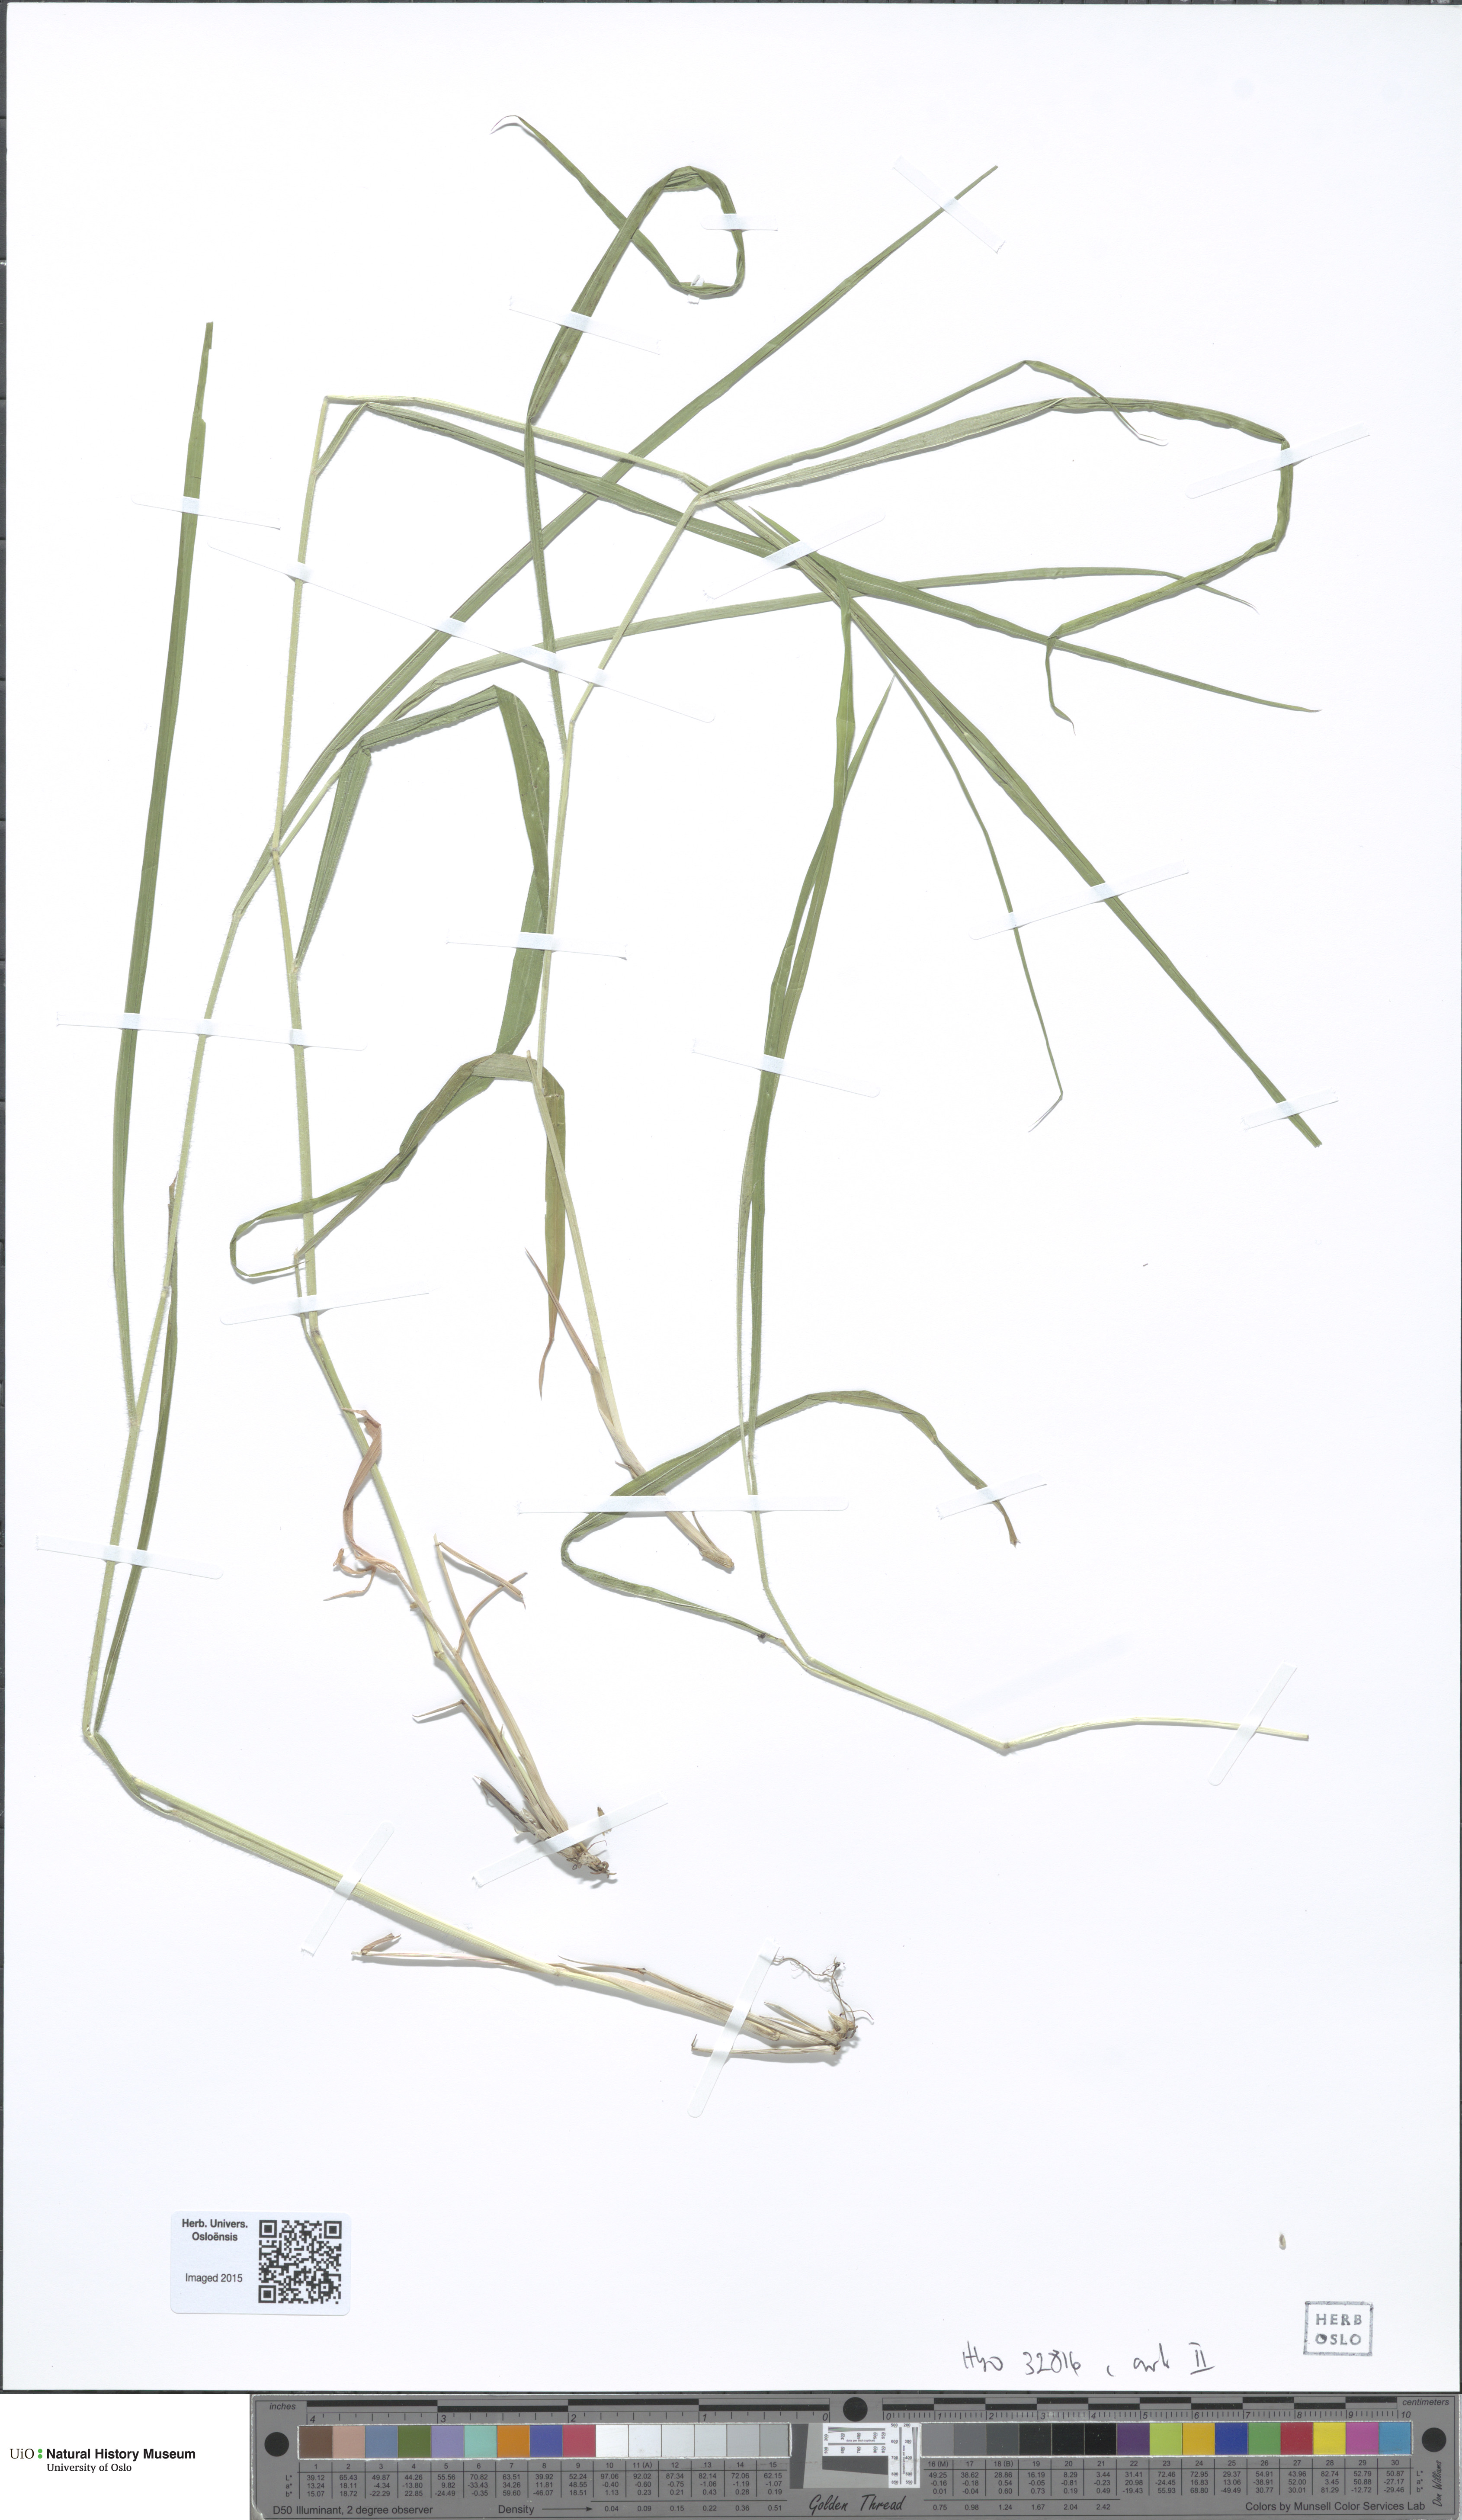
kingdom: Plantae
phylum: Tracheophyta
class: Liliopsida
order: Poales
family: Poaceae
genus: Bromus
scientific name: Bromus benekenii
